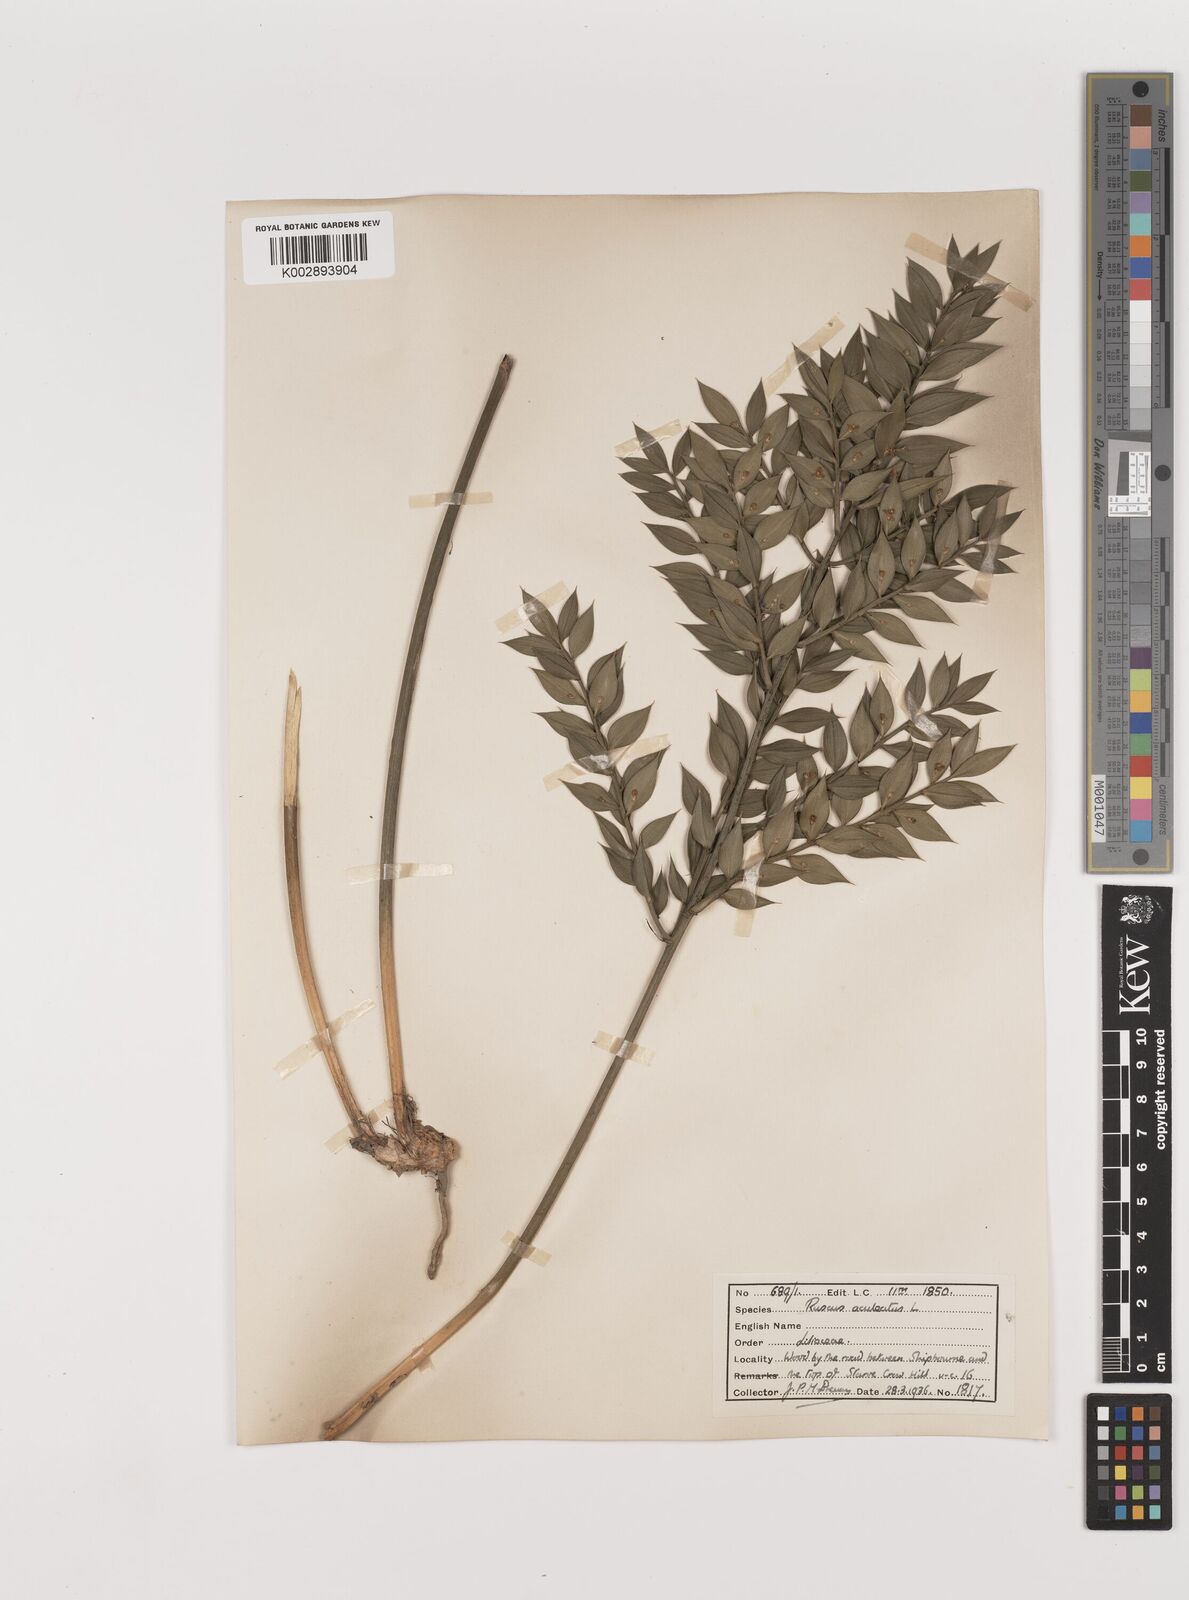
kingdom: Plantae
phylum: Tracheophyta
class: Liliopsida
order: Asparagales
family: Asparagaceae
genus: Ruscus
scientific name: Ruscus aculeatus
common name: Butcher's-broom
